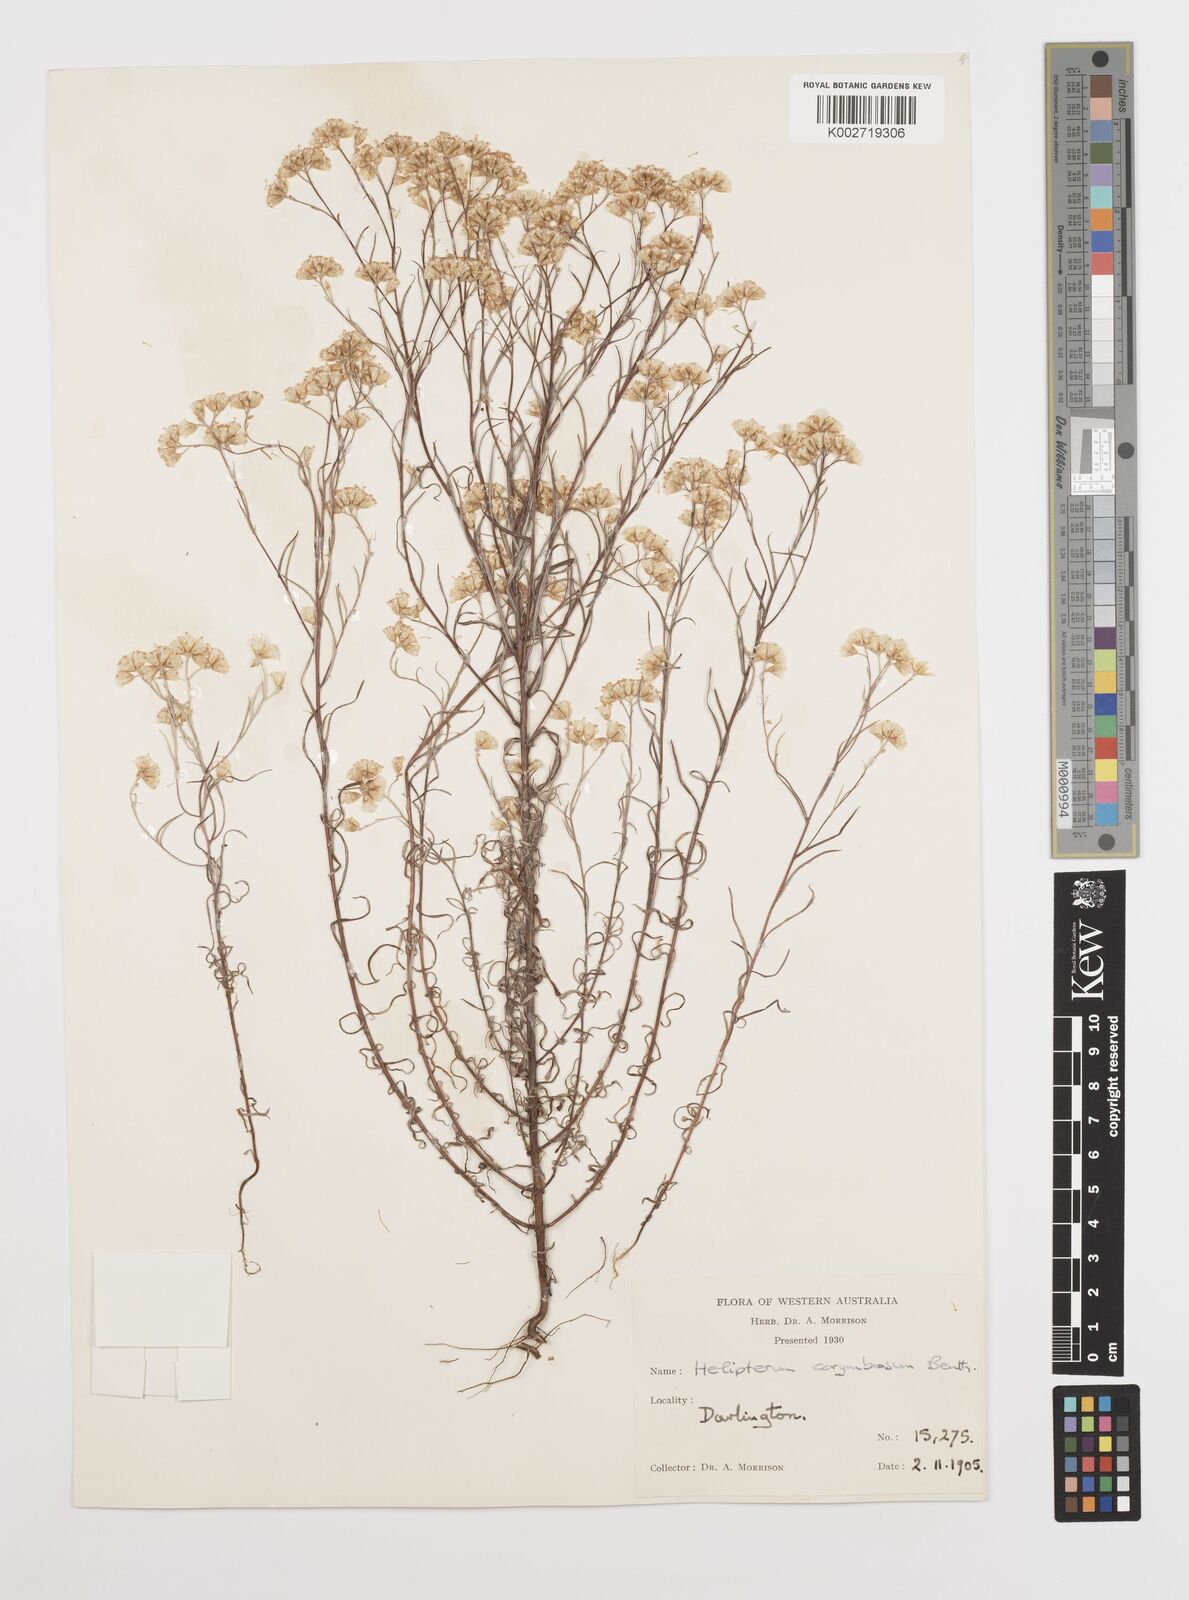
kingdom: Plantae
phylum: Tracheophyta
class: Magnoliopsida
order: Asterales
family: Asteraceae
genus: Rhodanthe
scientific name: Rhodanthe corymbosa
